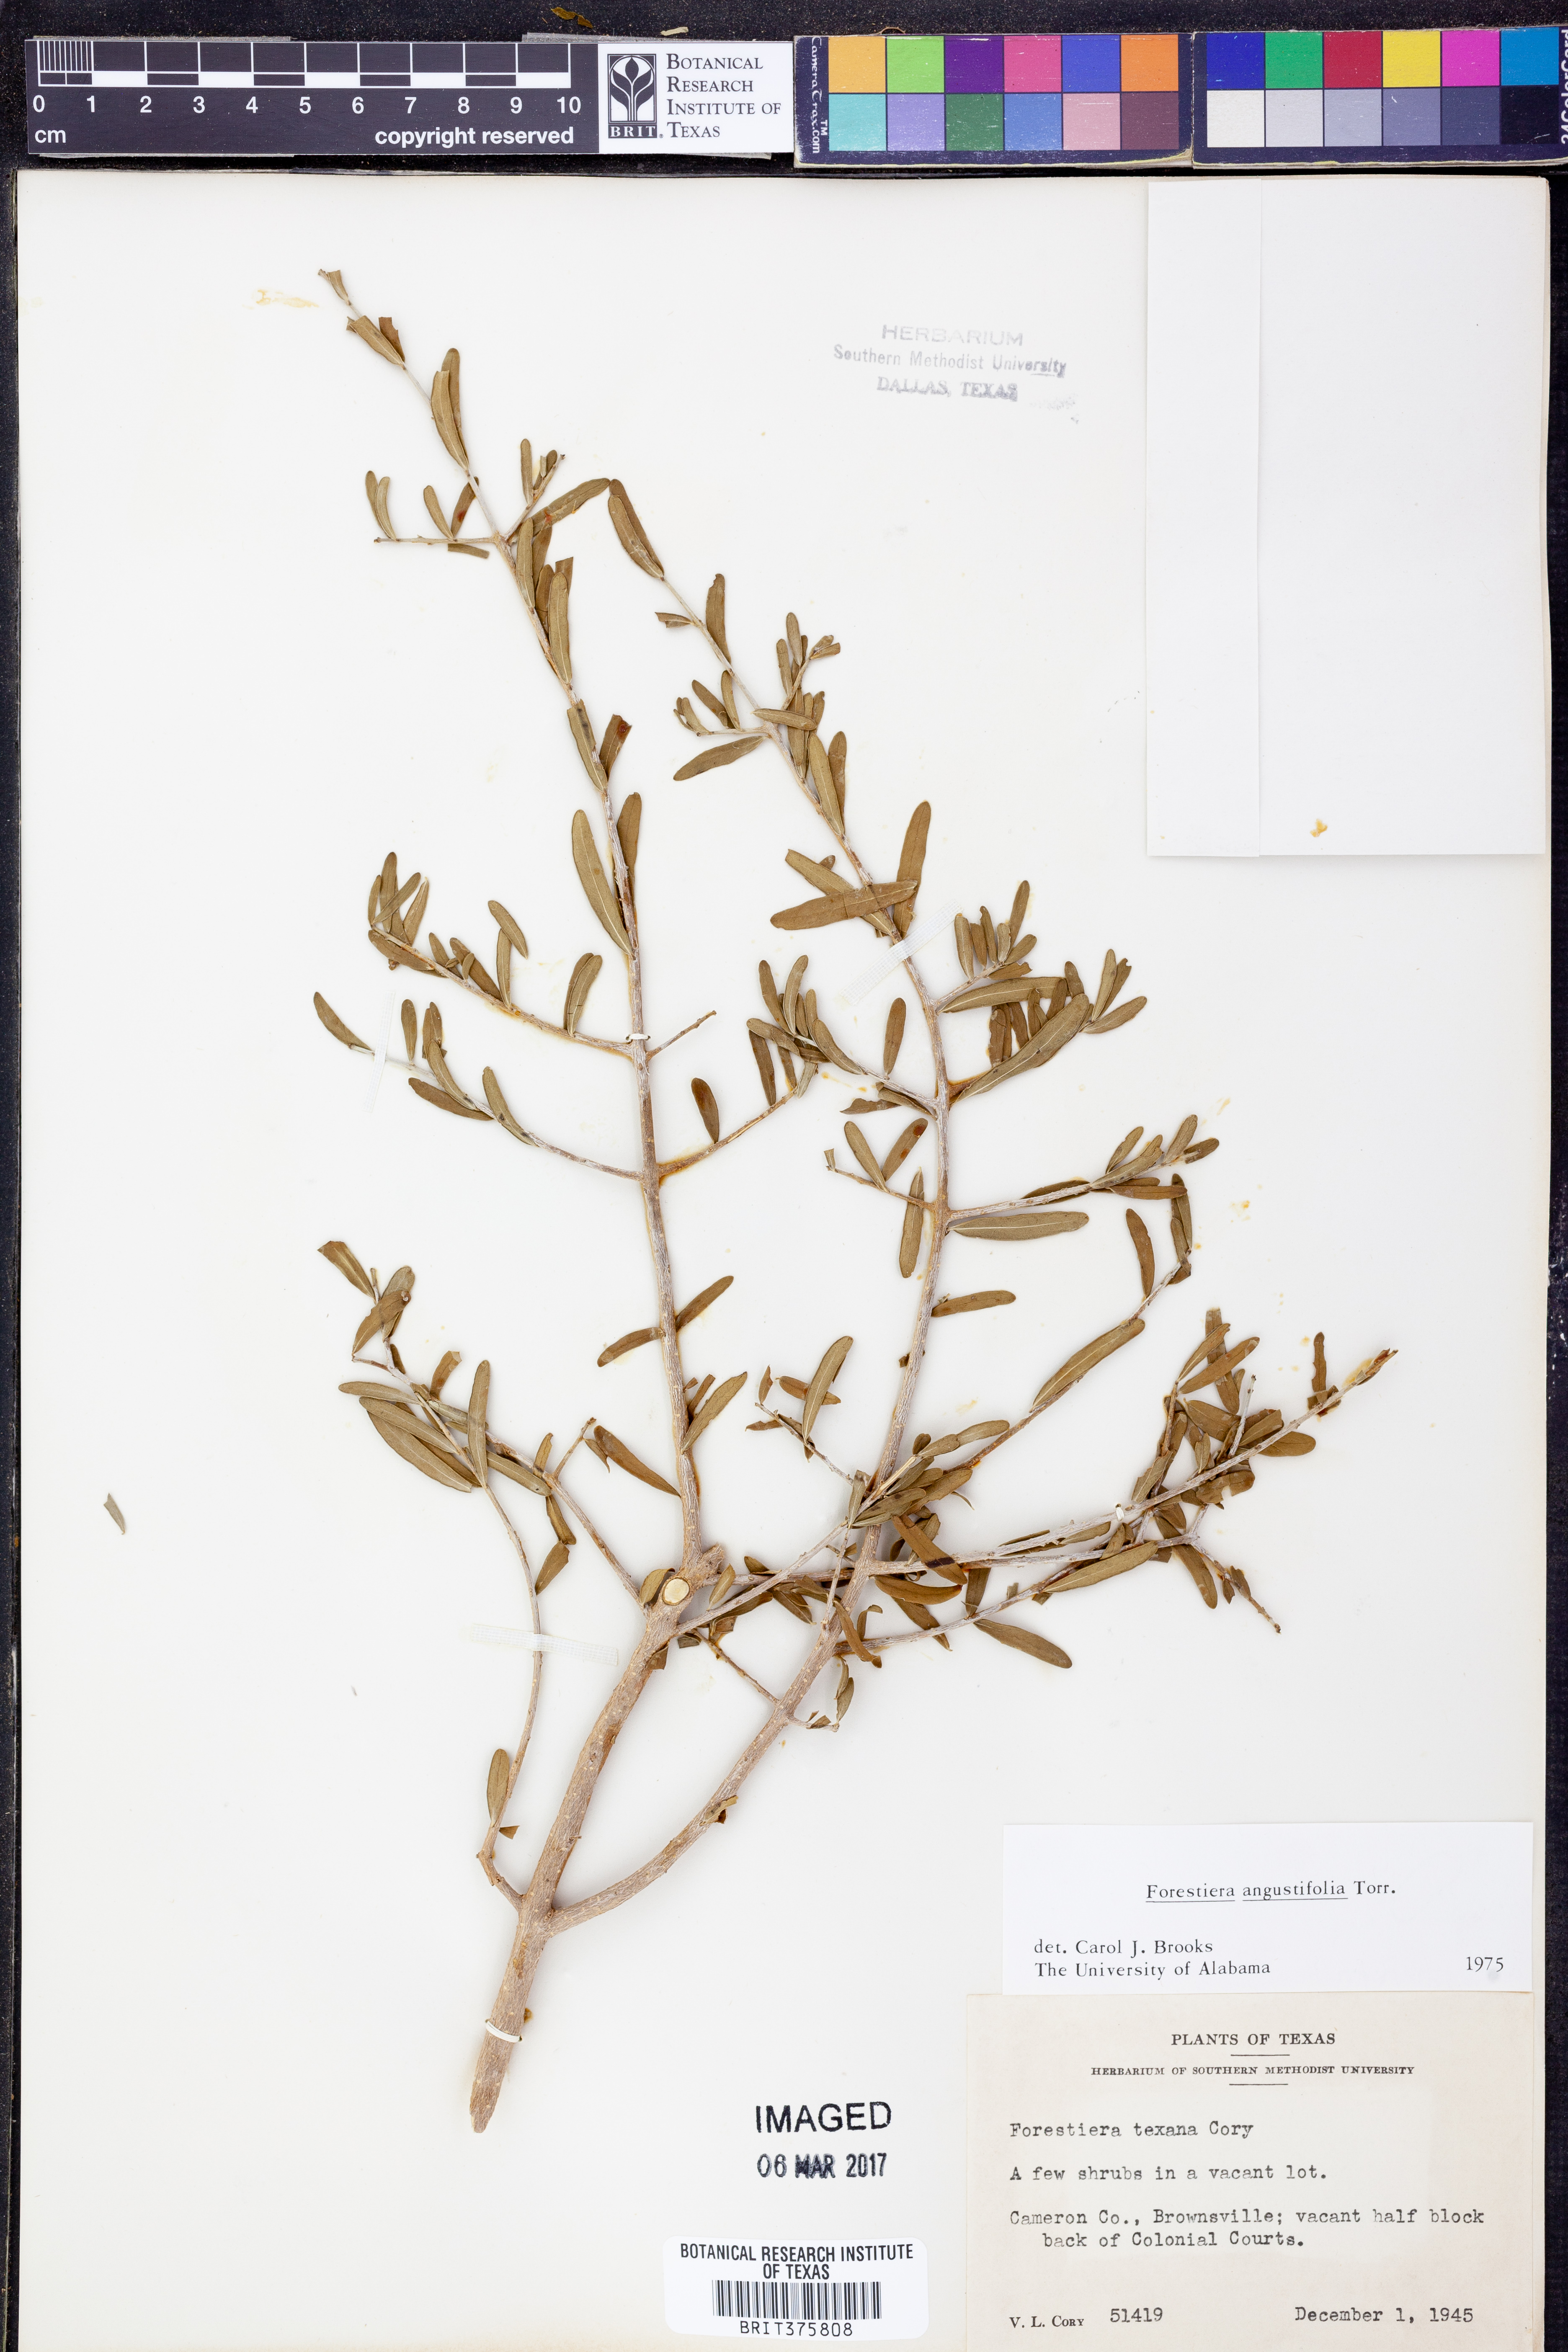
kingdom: Plantae
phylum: Tracheophyta
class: Magnoliopsida
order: Lamiales
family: Oleaceae
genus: Forestiera
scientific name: Forestiera angustifolia
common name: Elbowbush
